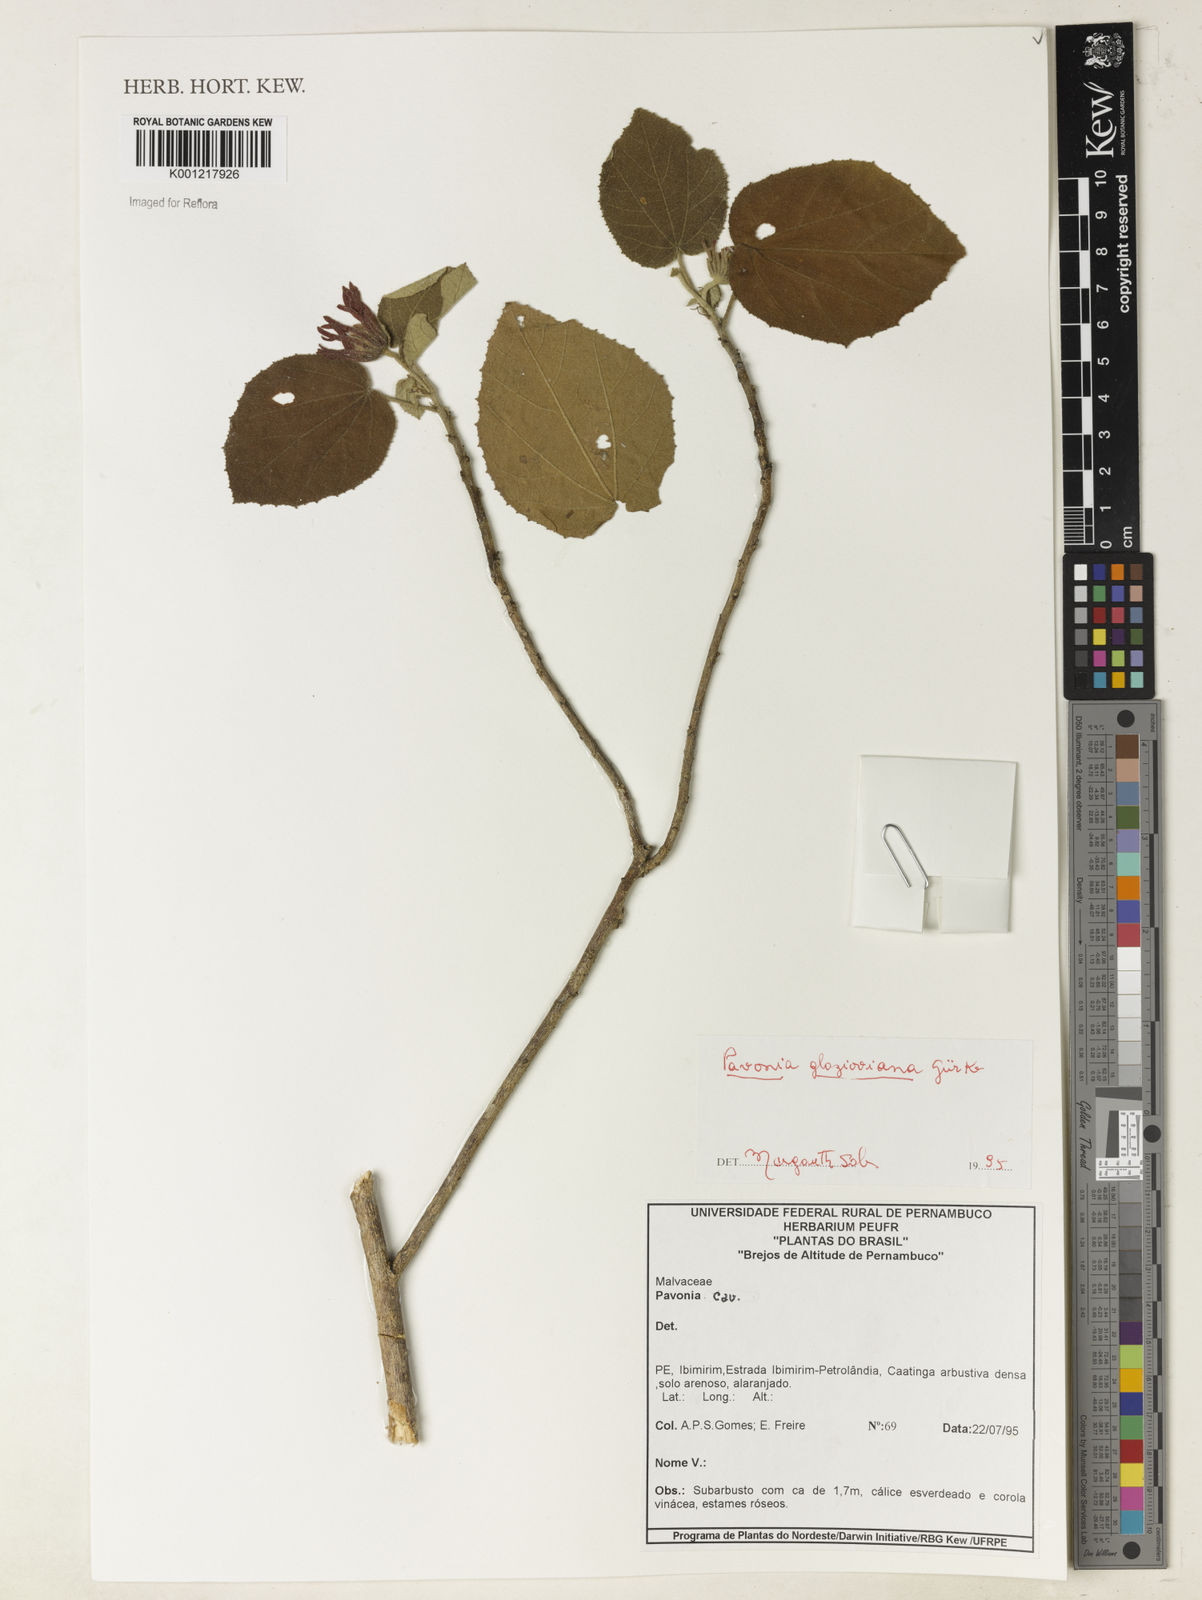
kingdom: Plantae
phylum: Tracheophyta
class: Magnoliopsida
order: Malvales
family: Malvaceae
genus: Pavonia
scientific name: Pavonia
